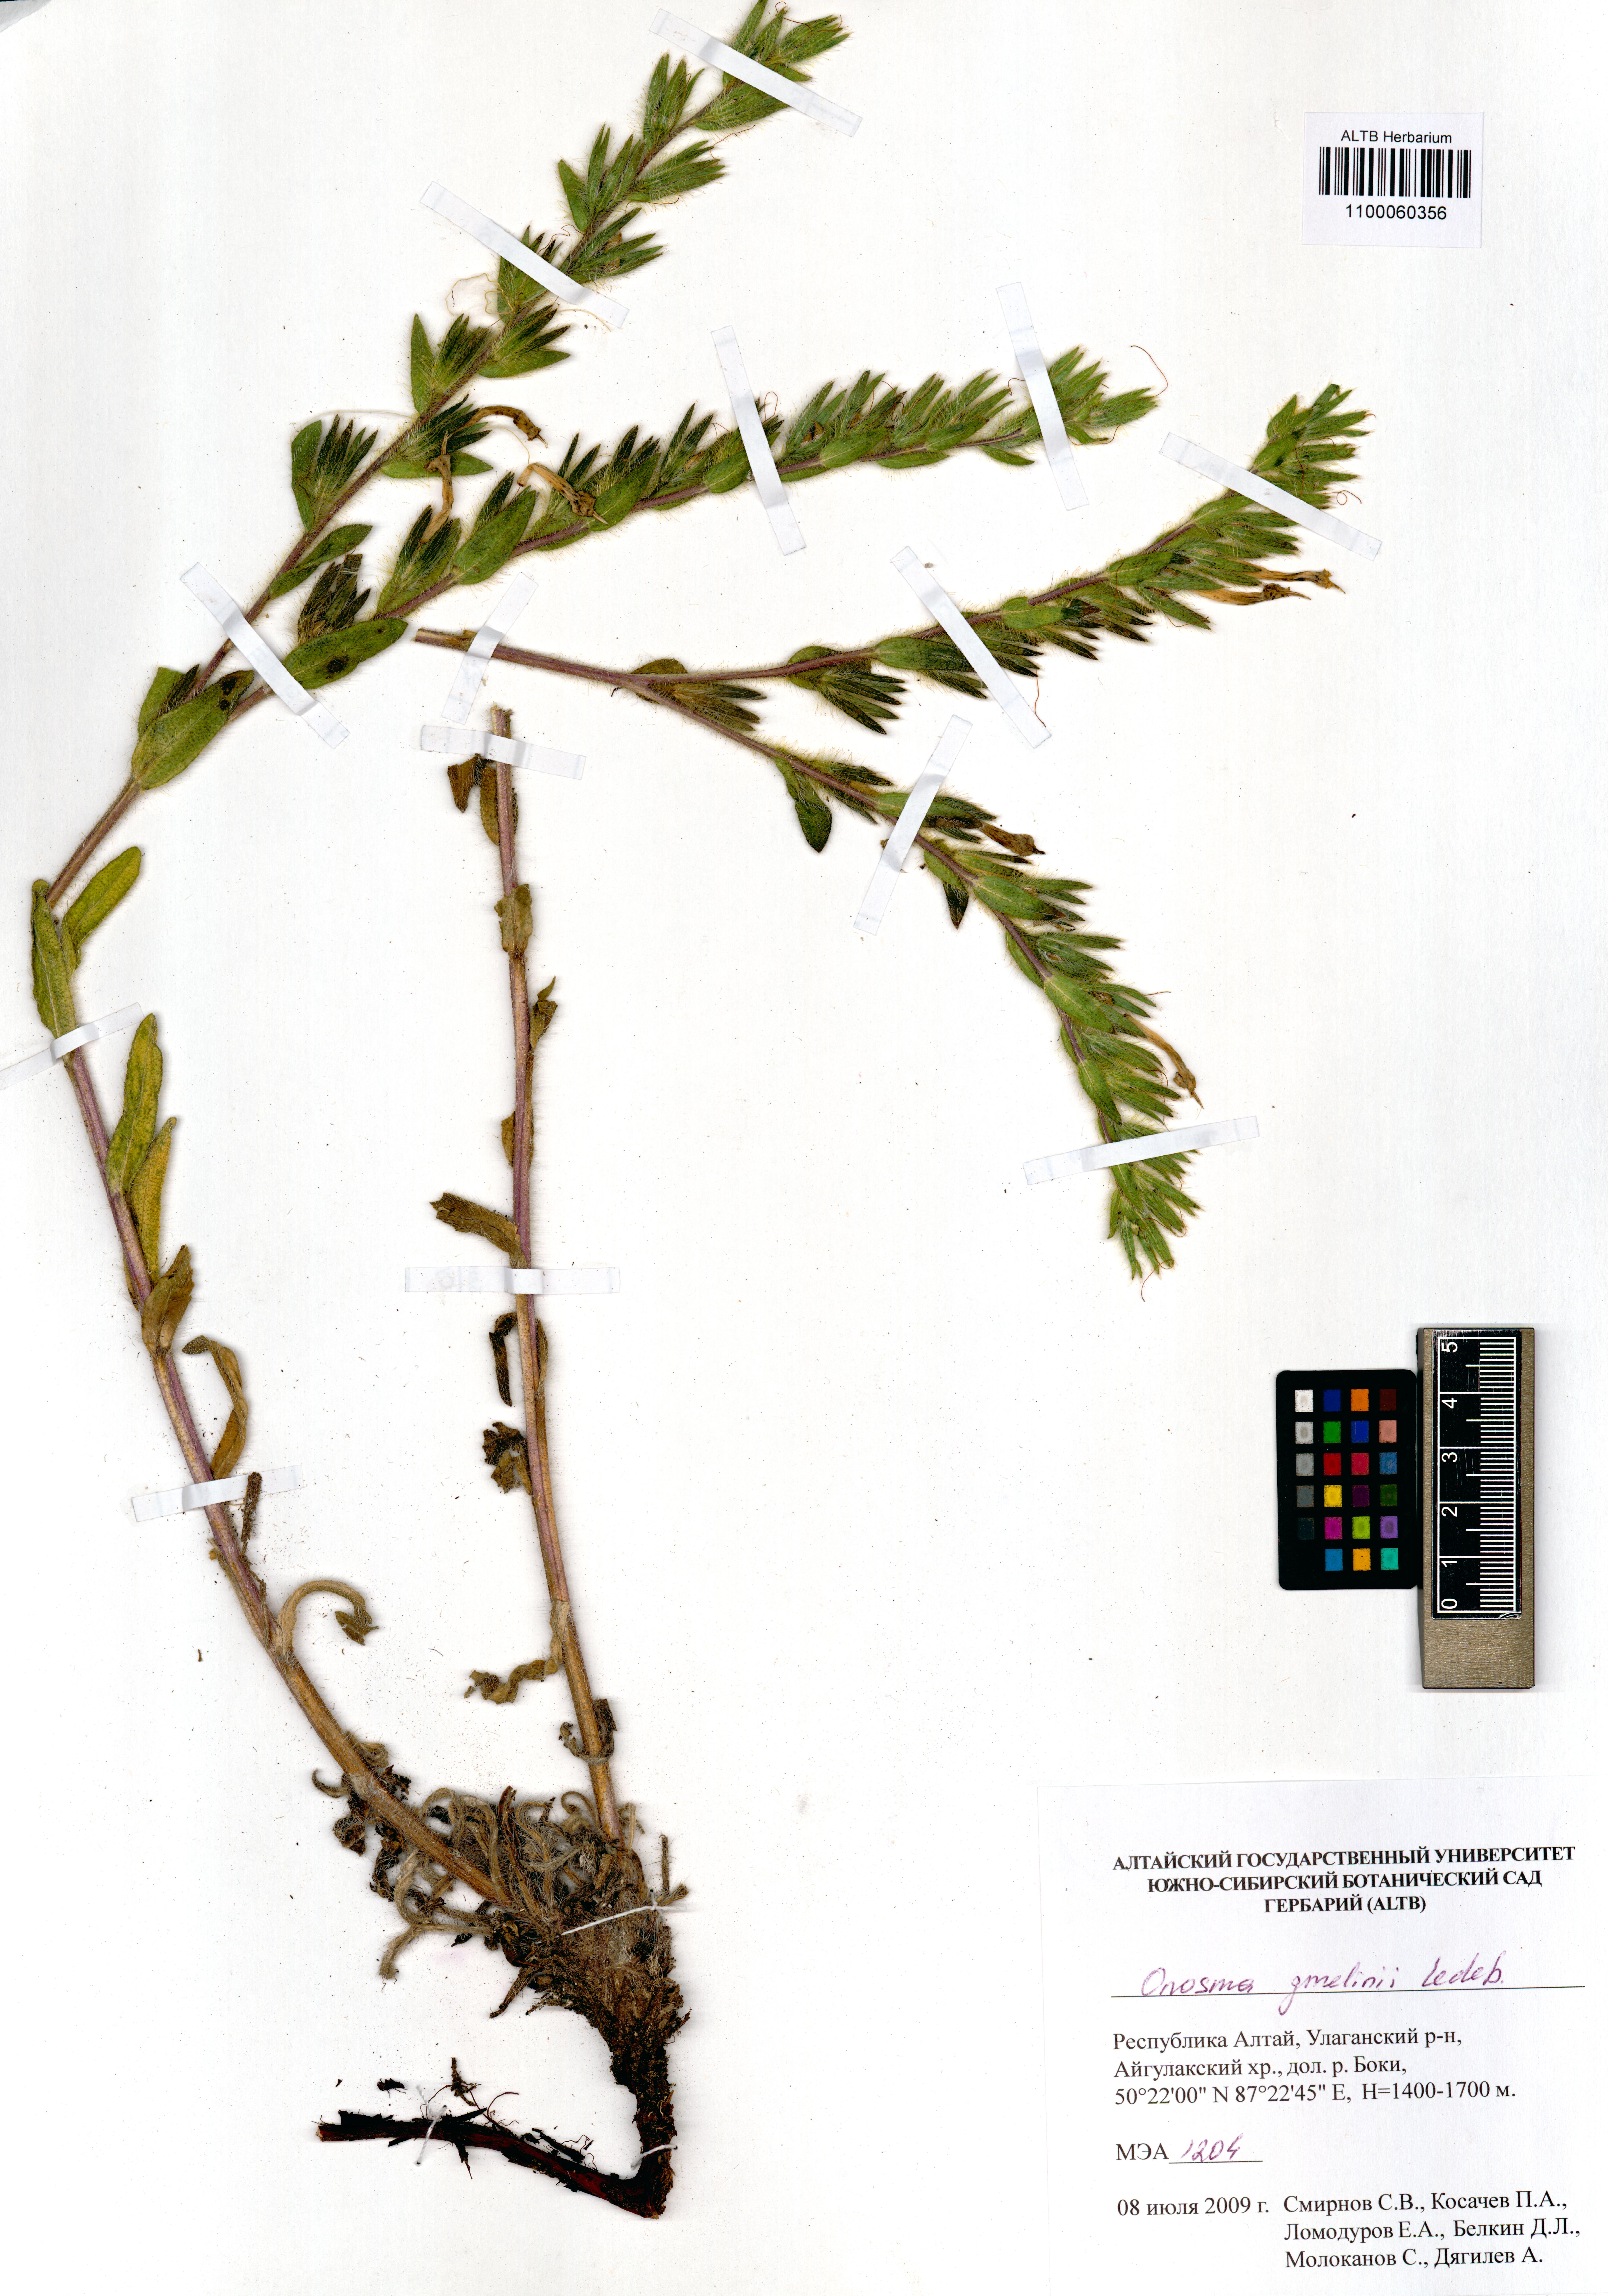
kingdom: Plantae
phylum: Tracheophyta
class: Magnoliopsida
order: Boraginales
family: Boraginaceae
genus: Onosma
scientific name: Onosma gmelinii
